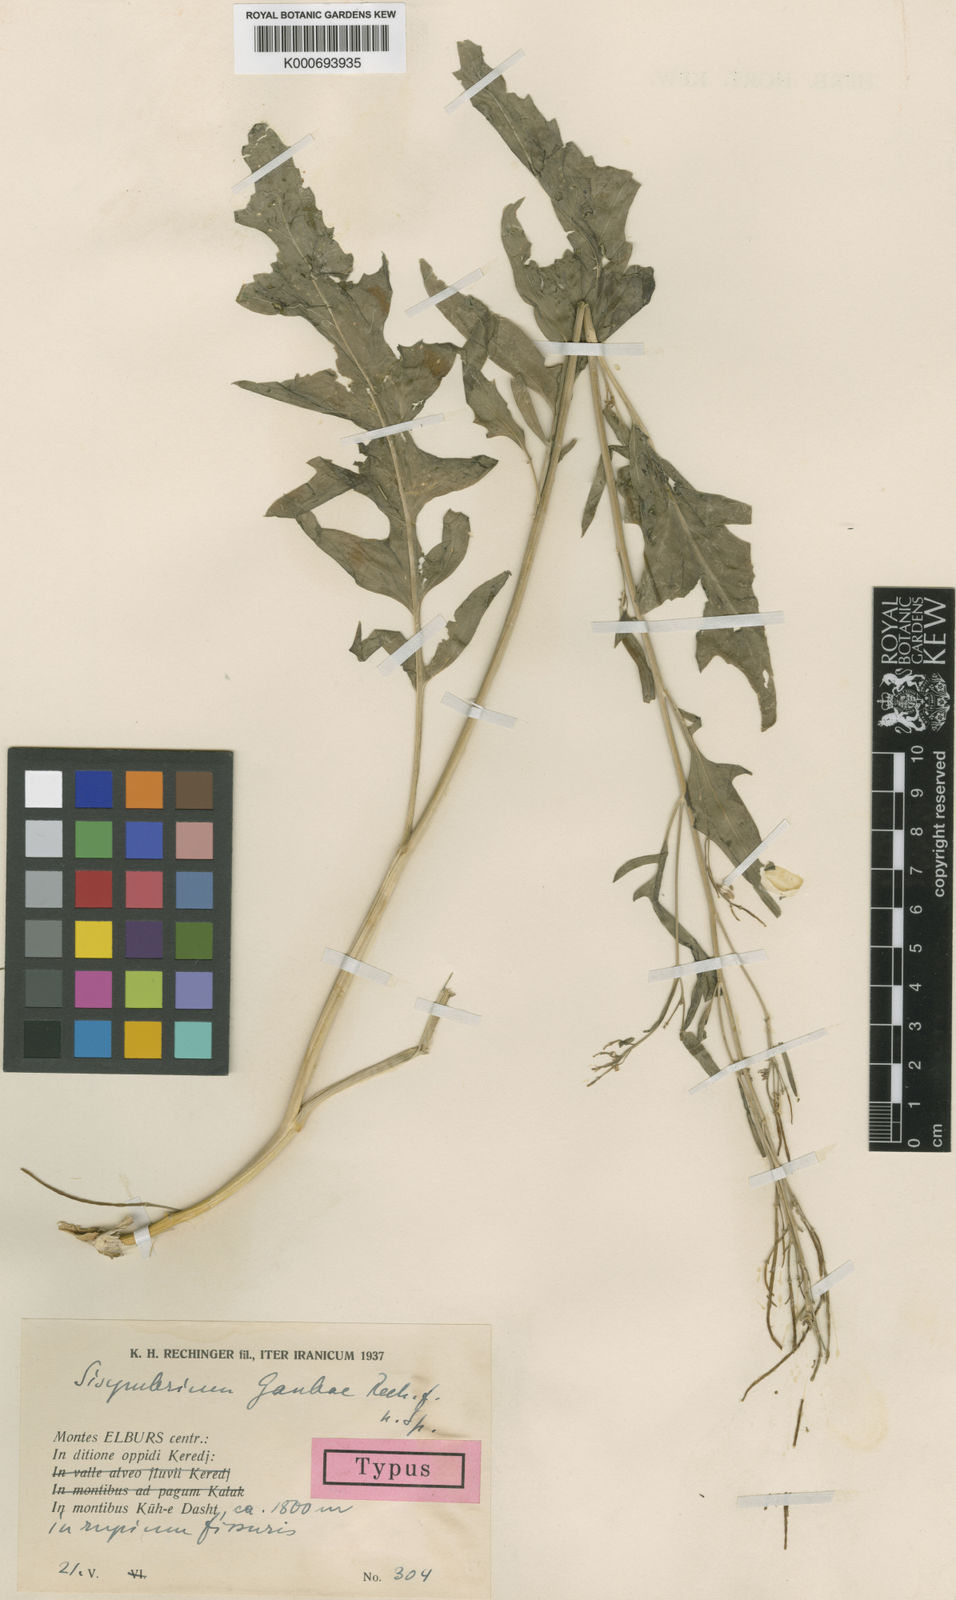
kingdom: Plantae
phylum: Tracheophyta
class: Magnoliopsida
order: Brassicales
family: Brassicaceae
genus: Sisymbrium
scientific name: Sisymbrium gaubae
